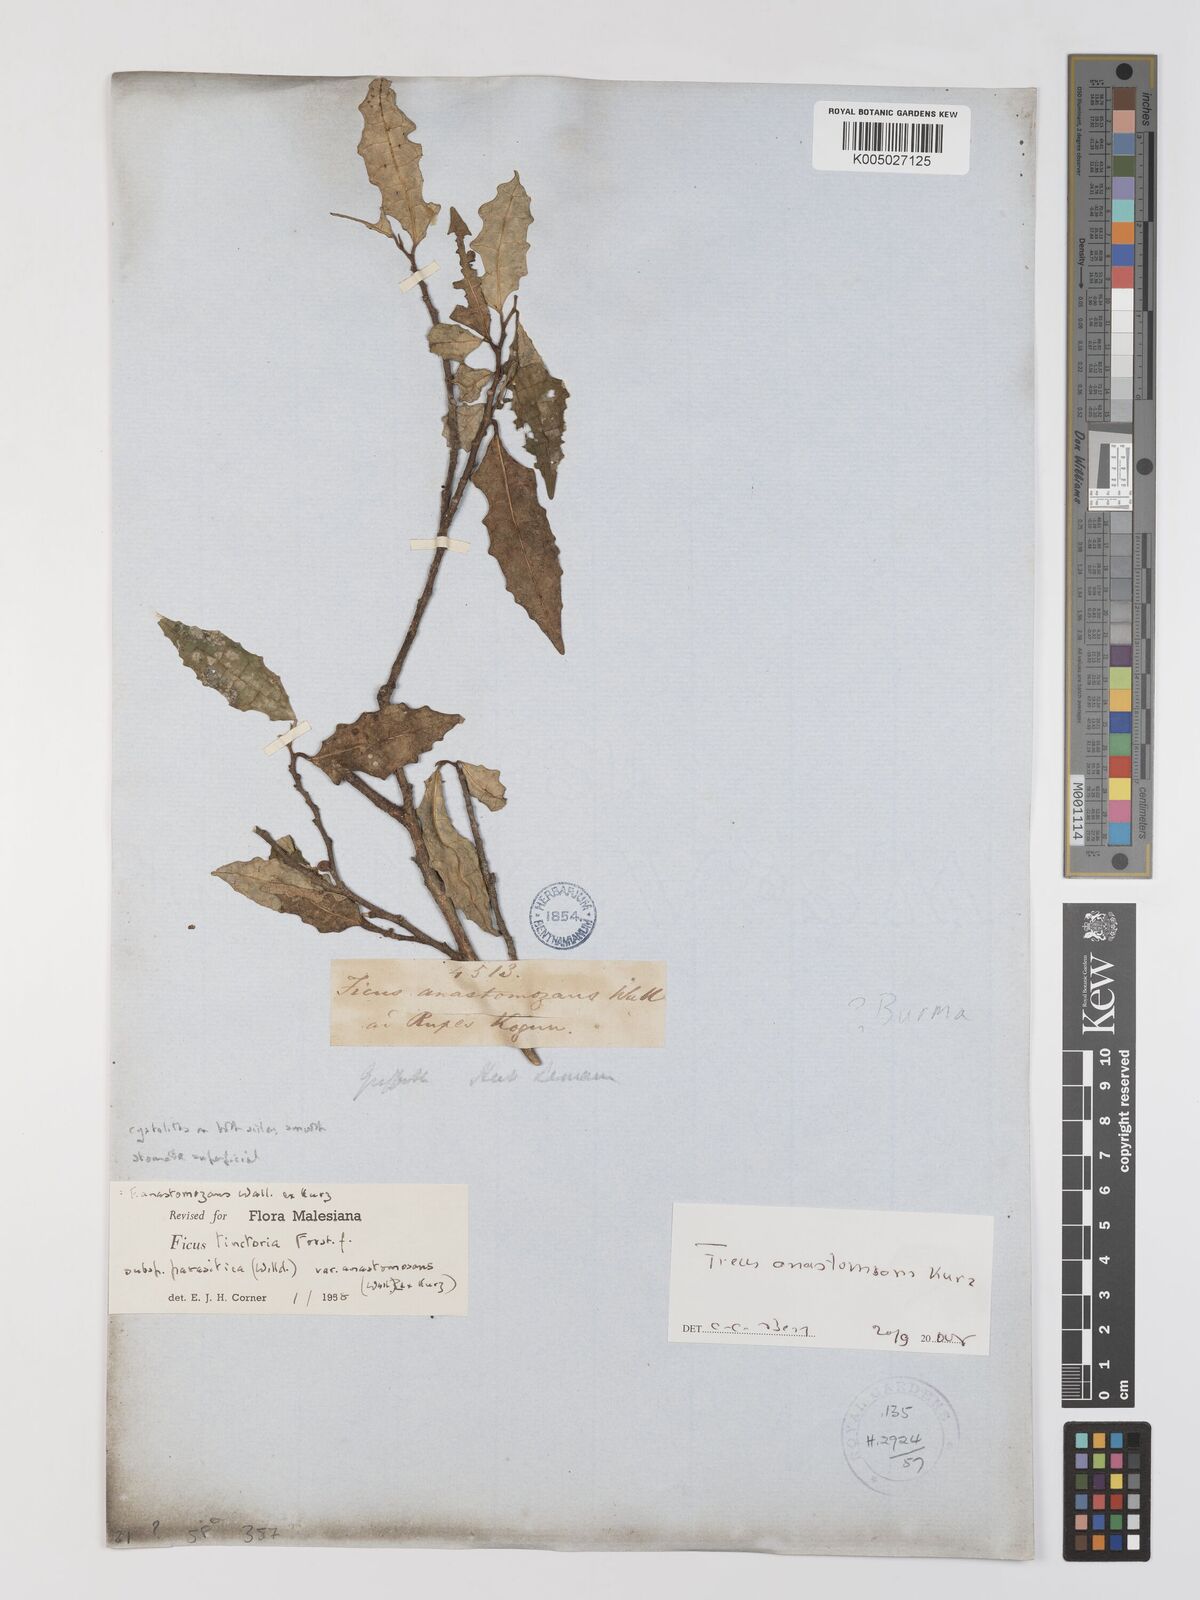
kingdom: Plantae
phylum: Tracheophyta
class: Magnoliopsida
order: Rosales
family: Moraceae
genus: Ficus
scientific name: Ficus tinctoria
